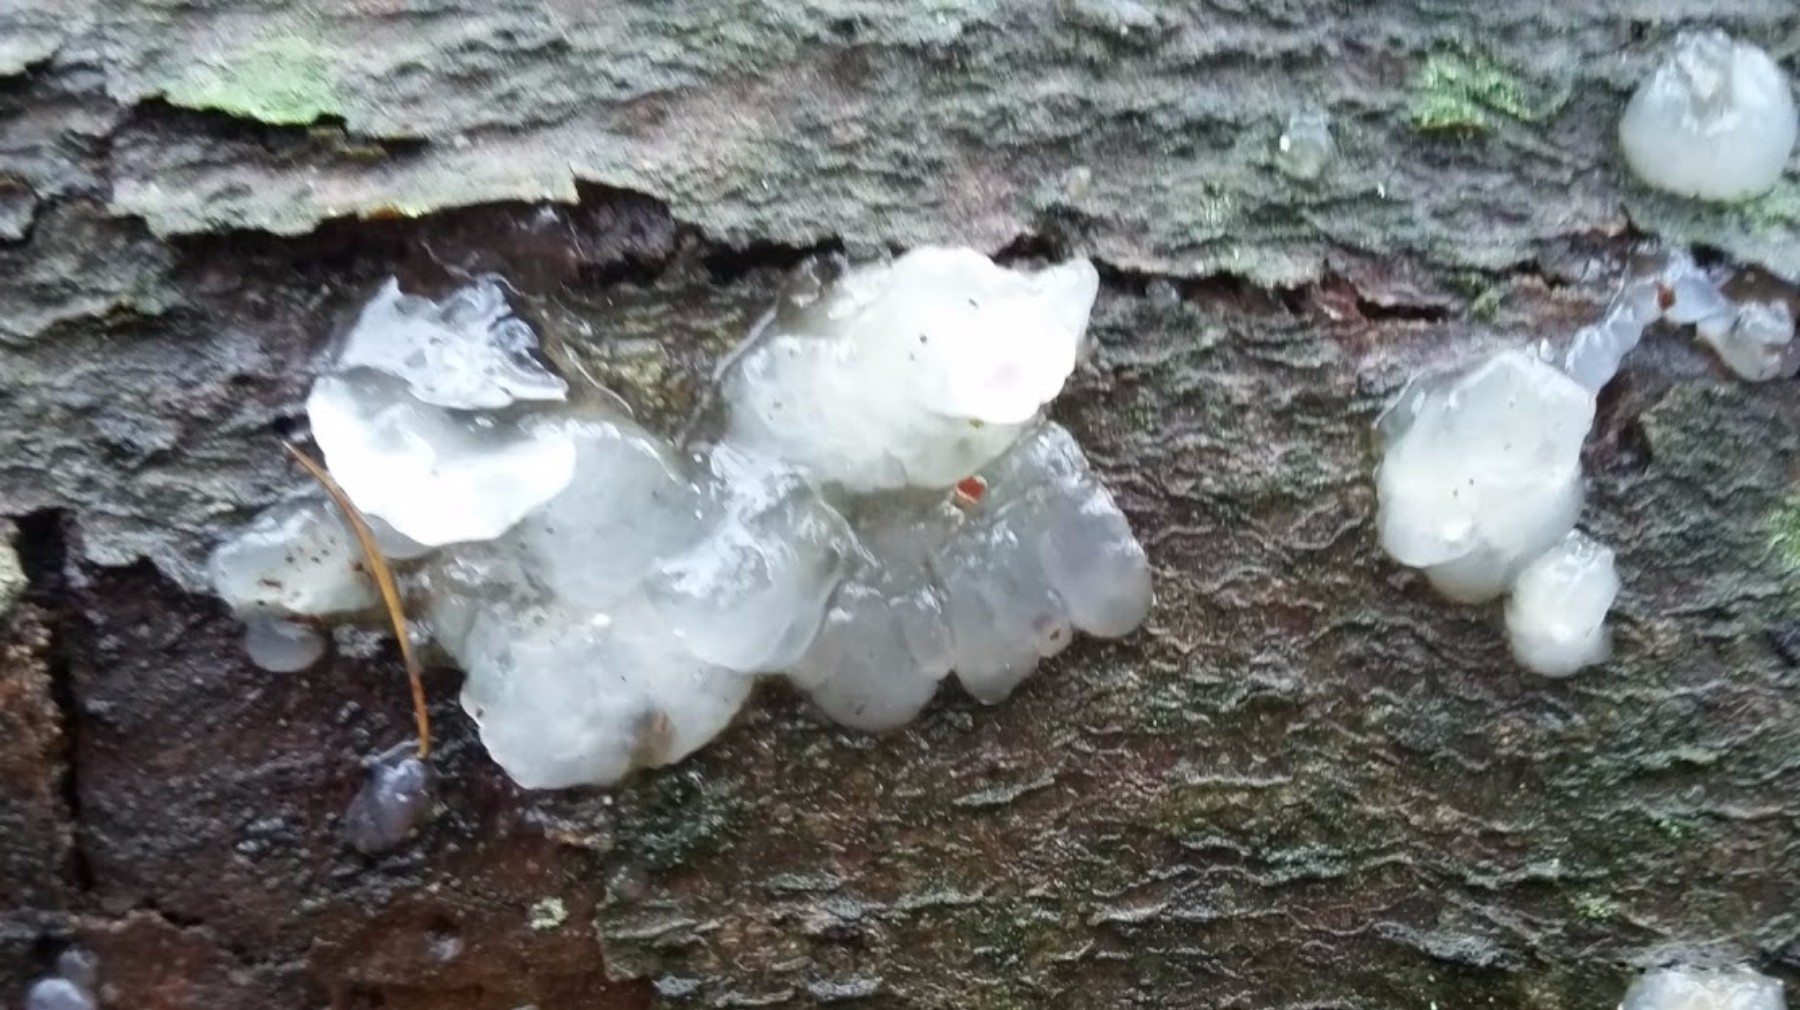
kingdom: Fungi
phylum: Basidiomycota
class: Agaricomycetes
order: Auriculariales
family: Hyaloriaceae
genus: Myxarium
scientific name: Myxarium nucleatum
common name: klar bævretop
